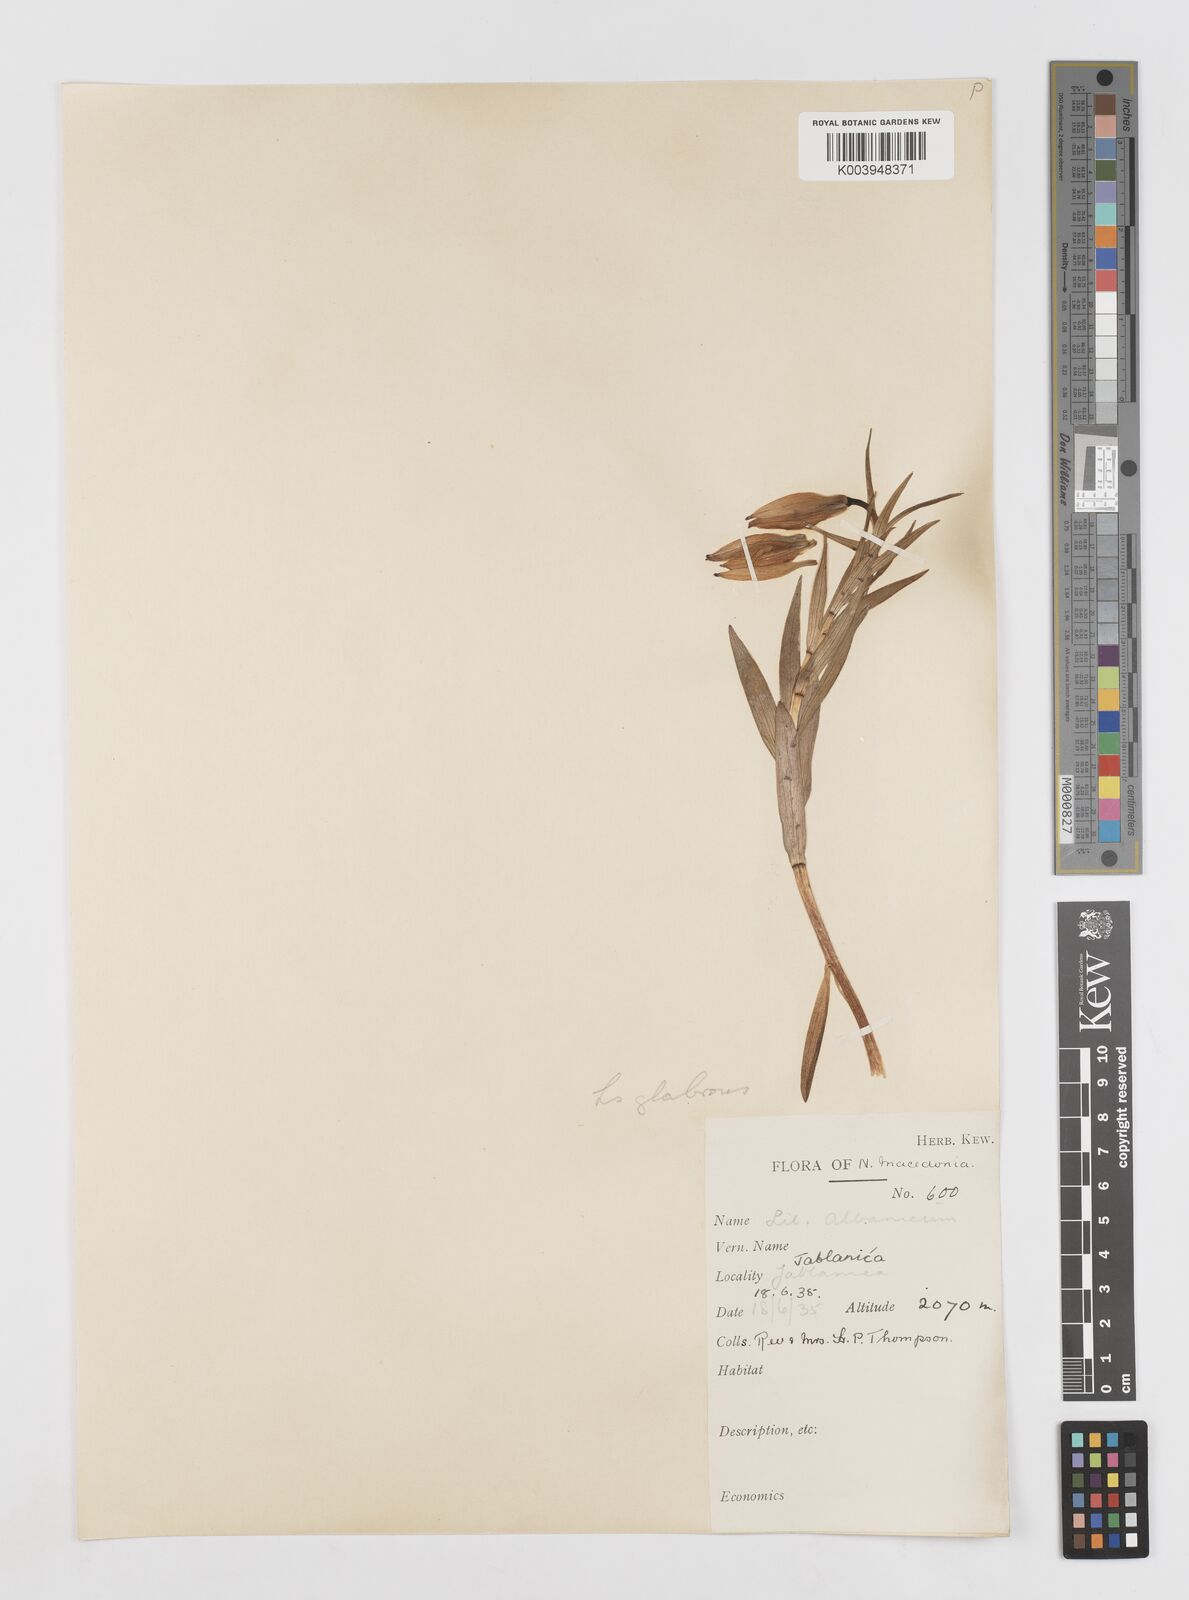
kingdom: Plantae
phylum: Tracheophyta
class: Liliopsida
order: Liliales
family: Liliaceae
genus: Lilium
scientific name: Lilium carniolicum
